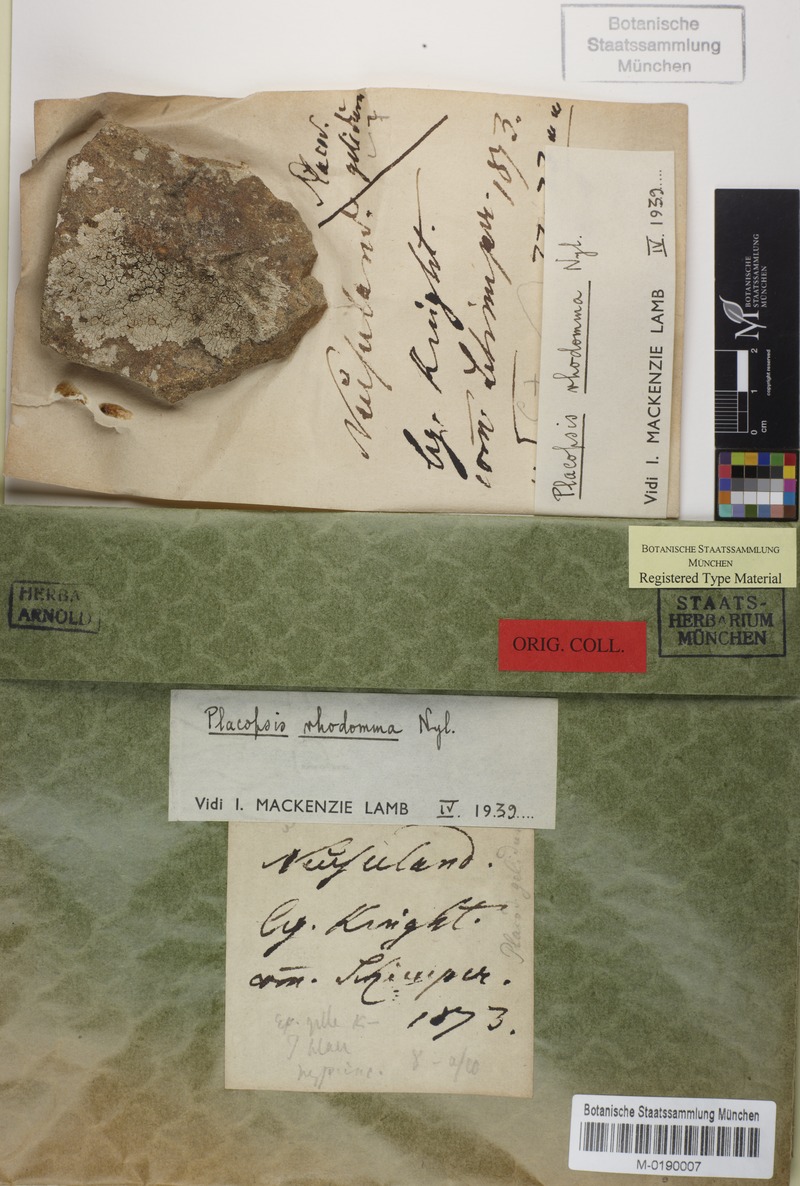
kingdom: Fungi
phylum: Ascomycota
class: Lecanoromycetes
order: Baeomycetales
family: Trapeliaceae
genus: Placopsis
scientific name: Placopsis
